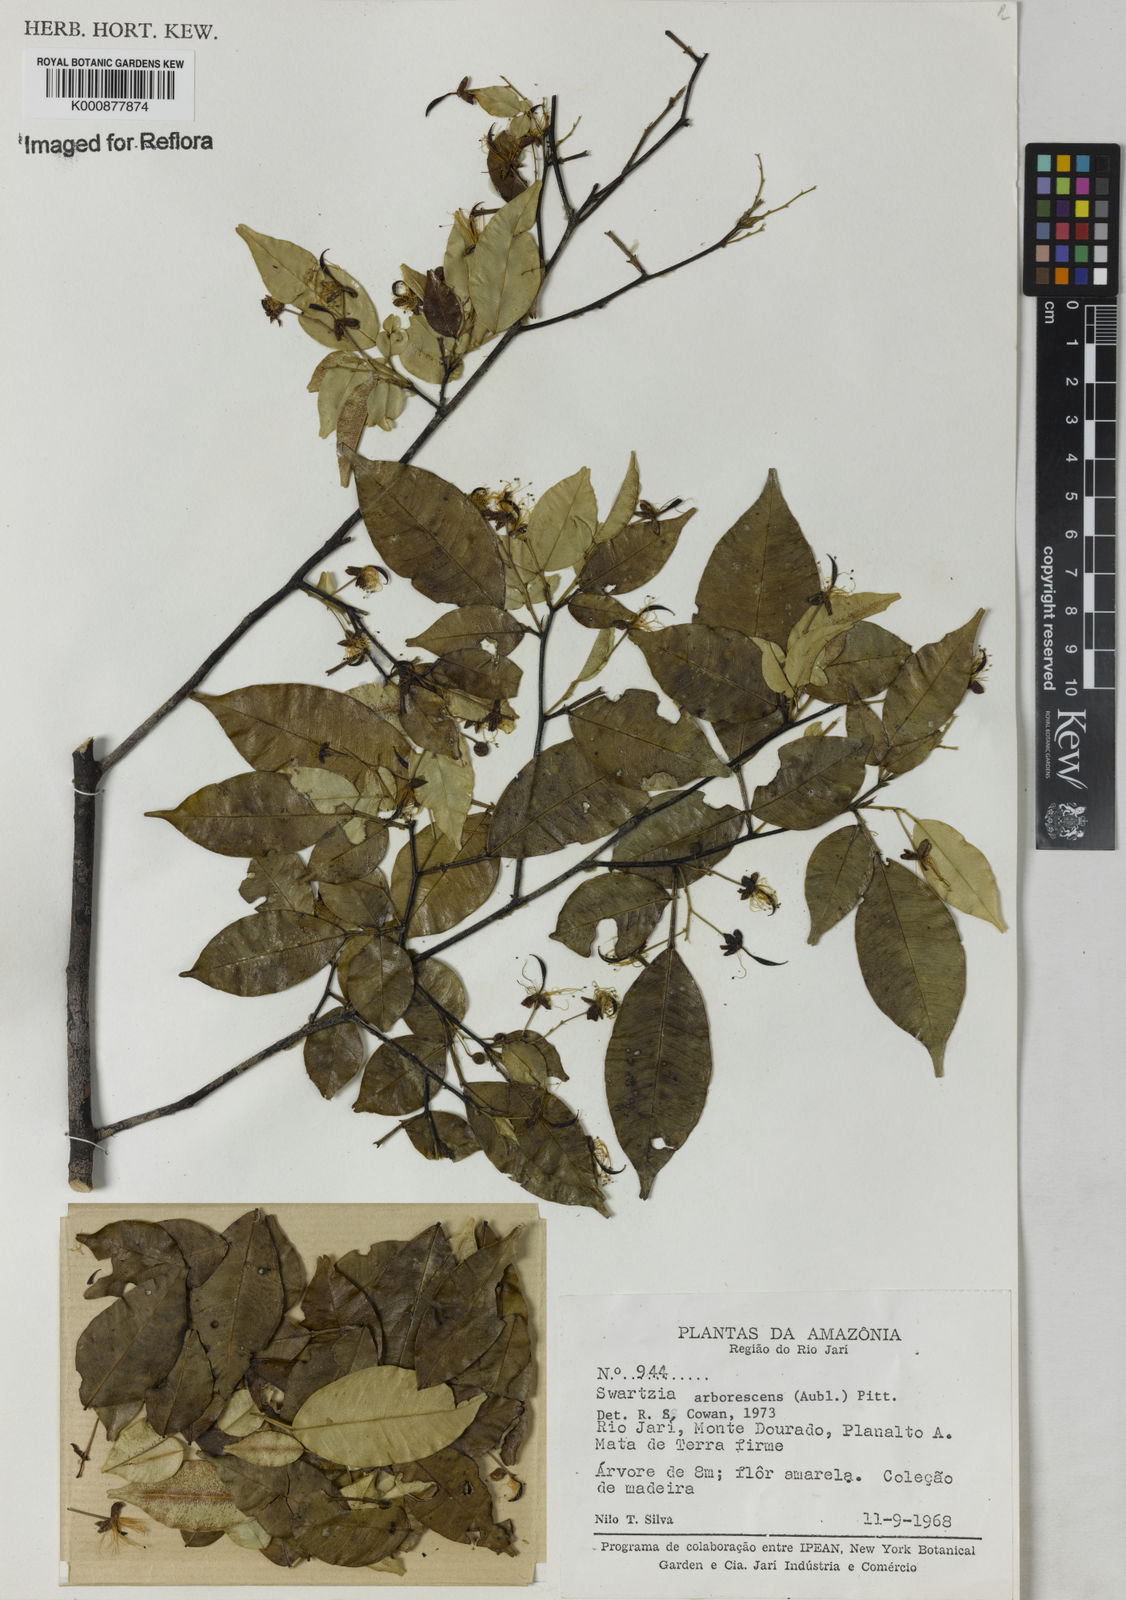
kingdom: Plantae
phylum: Tracheophyta
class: Magnoliopsida
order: Fabales
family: Fabaceae
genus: Swartzia
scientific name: Swartzia arborescens
